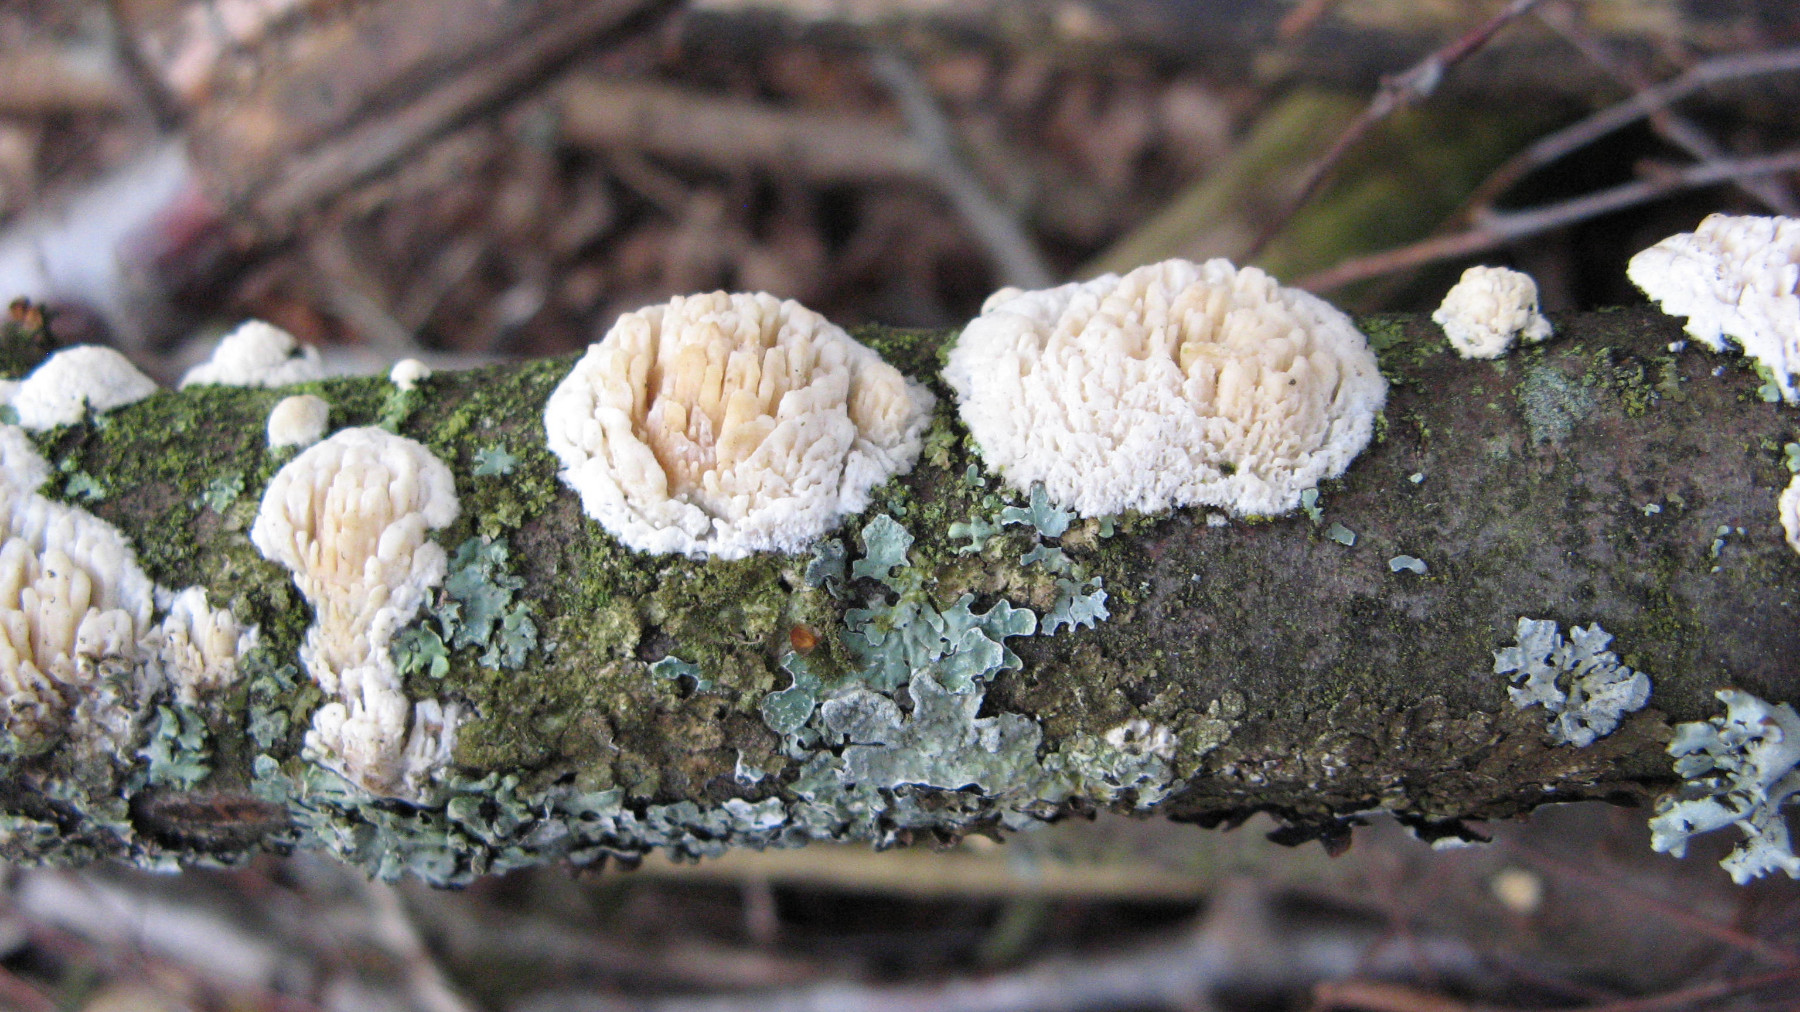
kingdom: Fungi
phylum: Basidiomycota
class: Agaricomycetes
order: Hymenochaetales
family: Schizoporaceae
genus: Xylodon
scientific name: Xylodon radula
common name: grovtandet kalkskind
